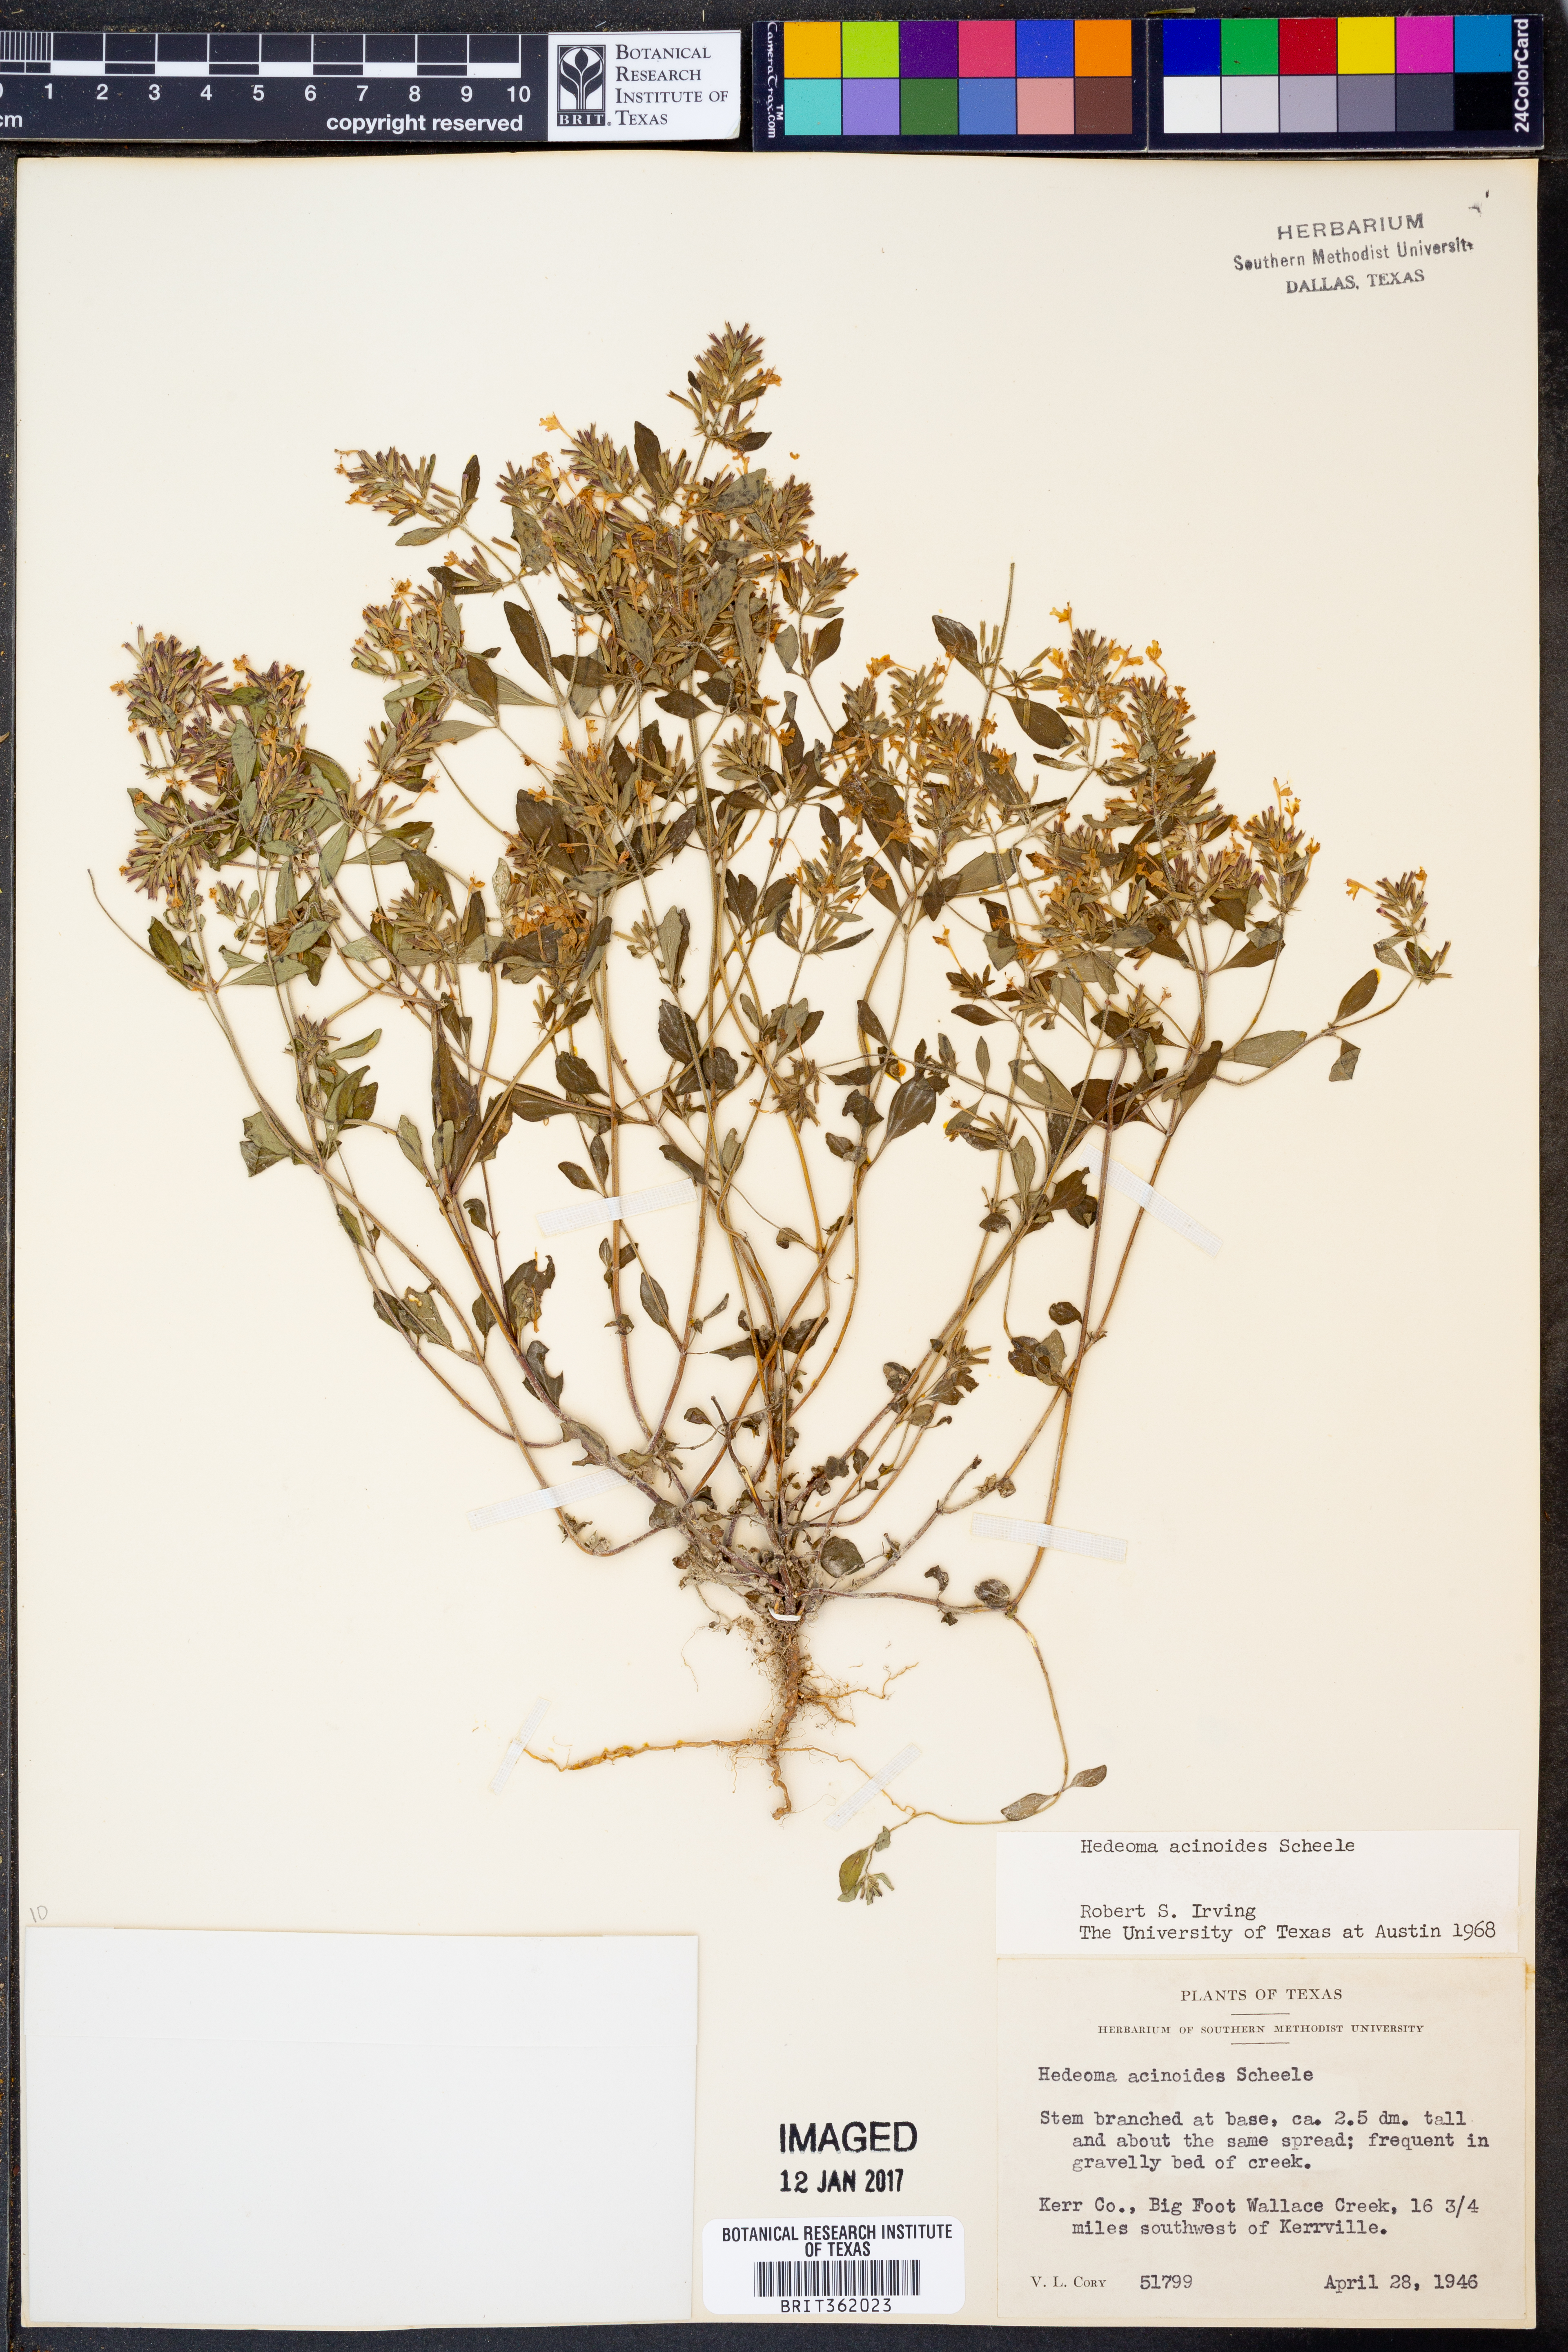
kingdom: Plantae
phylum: Tracheophyta
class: Magnoliopsida
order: Lamiales
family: Lamiaceae
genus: Hedeoma
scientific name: Hedeoma acinoides
